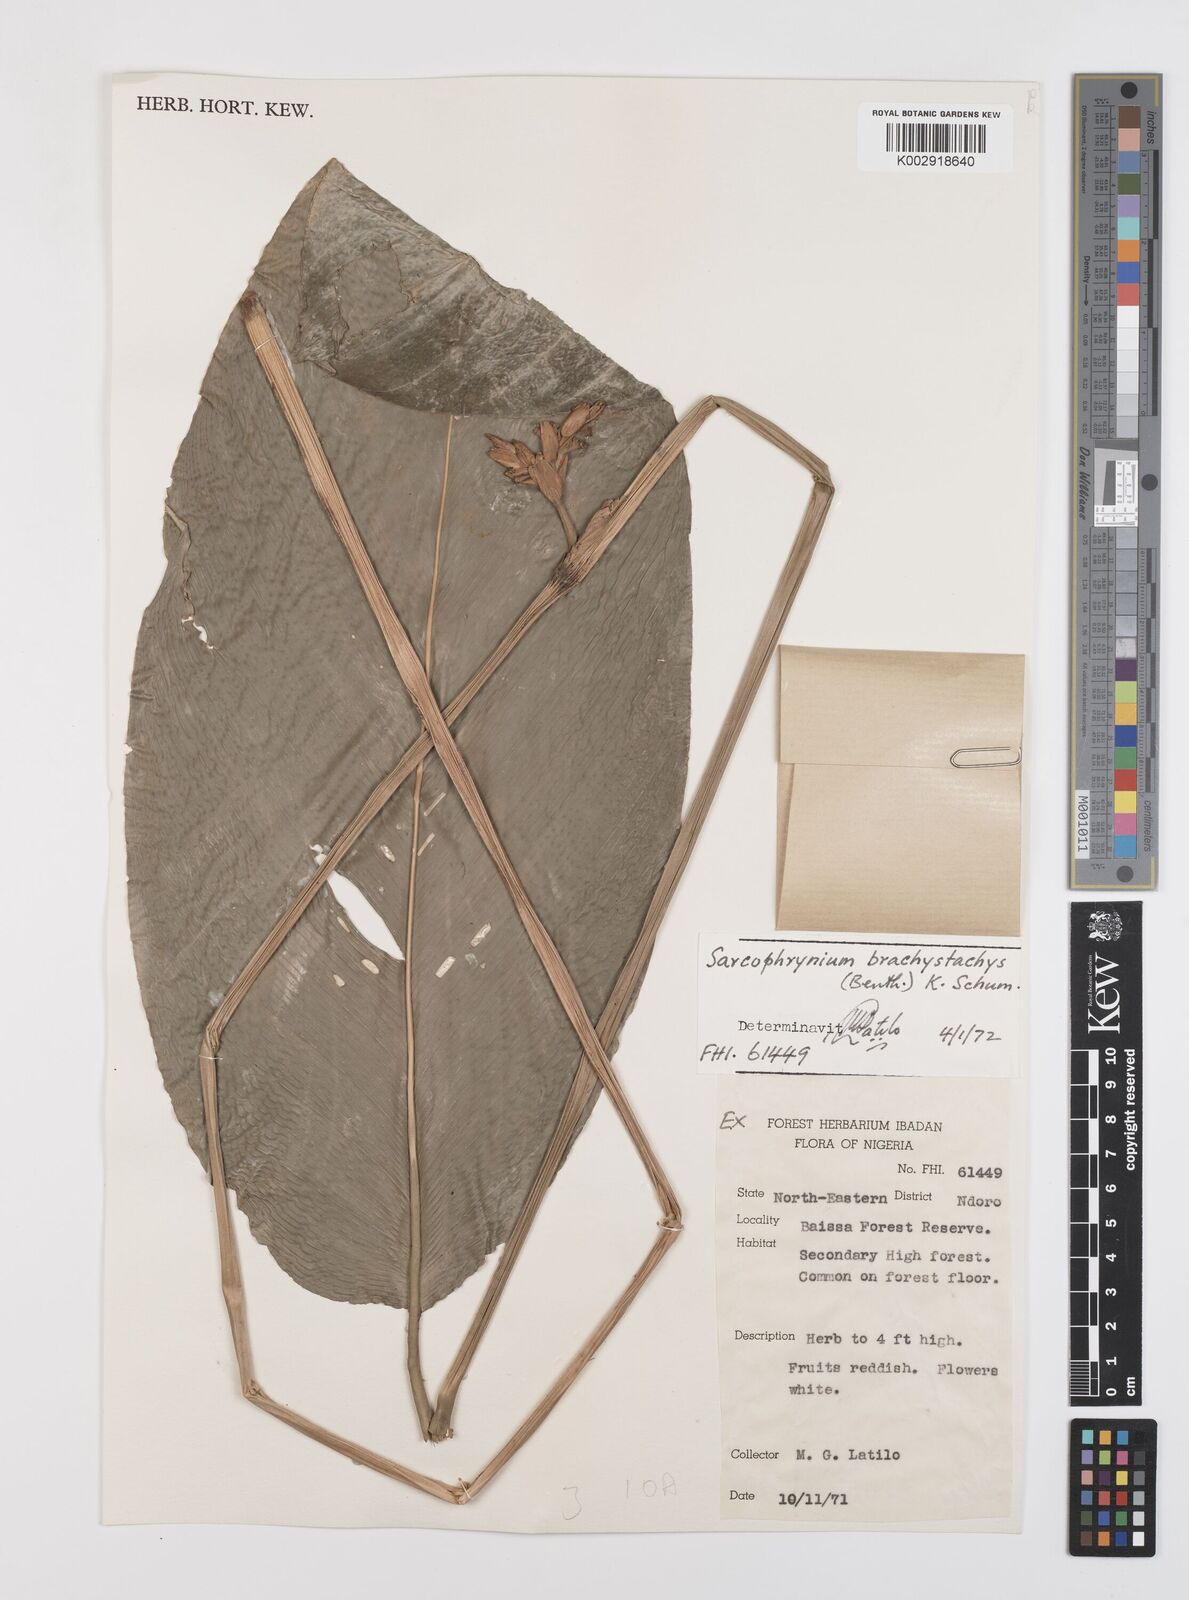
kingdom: Plantae
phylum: Tracheophyta
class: Liliopsida
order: Zingiberales
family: Marantaceae
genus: Sarcophrynium
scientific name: Sarcophrynium brachystachyum
